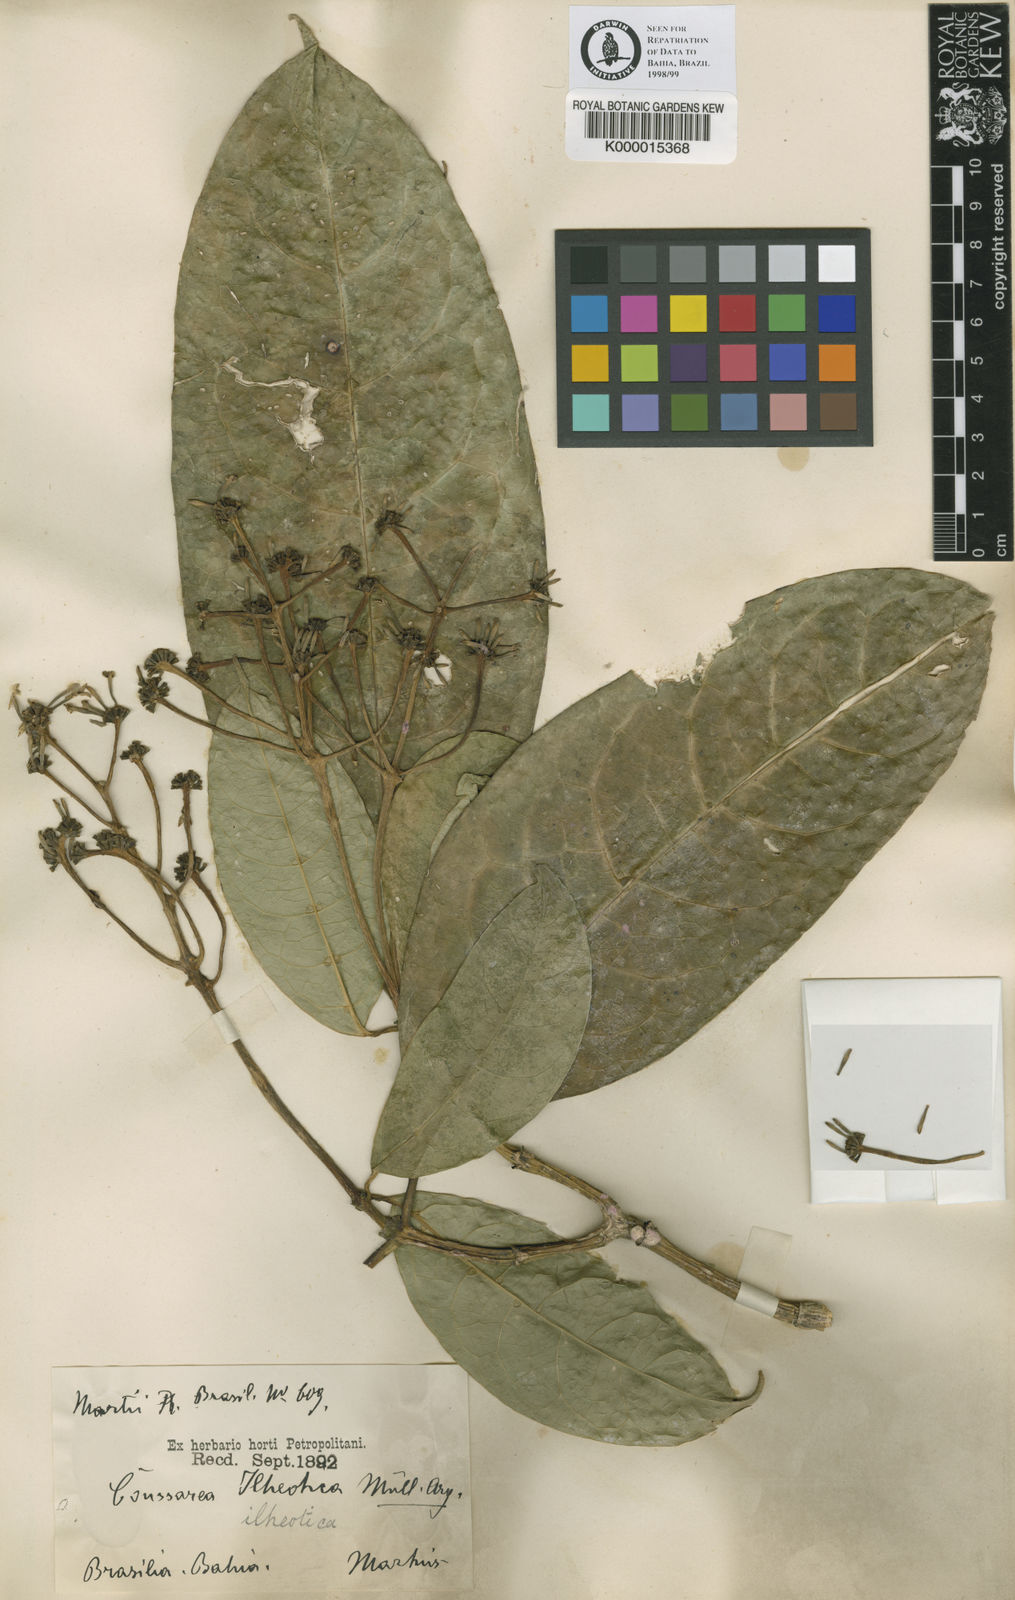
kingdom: Plantae
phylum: Tracheophyta
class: Magnoliopsida
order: Gentianales
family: Rubiaceae
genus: Coussarea
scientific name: Coussarea
